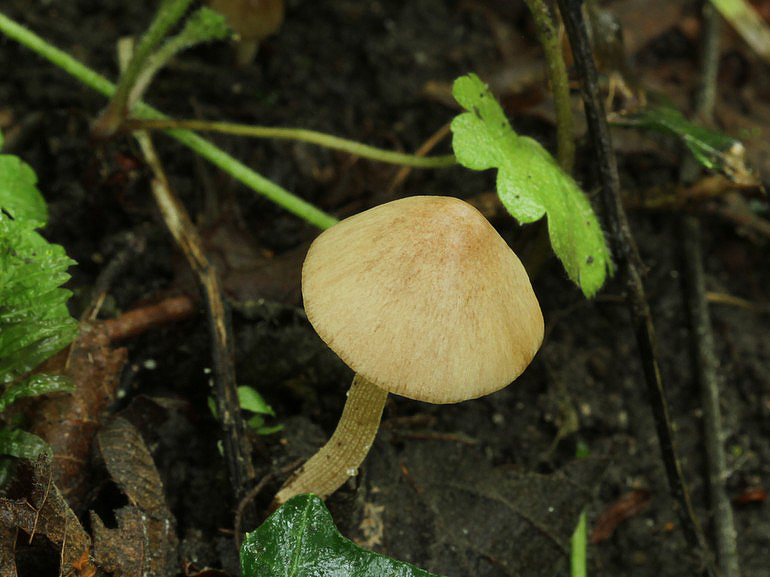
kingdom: Fungi
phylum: Basidiomycota
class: Agaricomycetes
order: Agaricales
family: Bolbitiaceae
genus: Conocybe
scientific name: Conocybe
